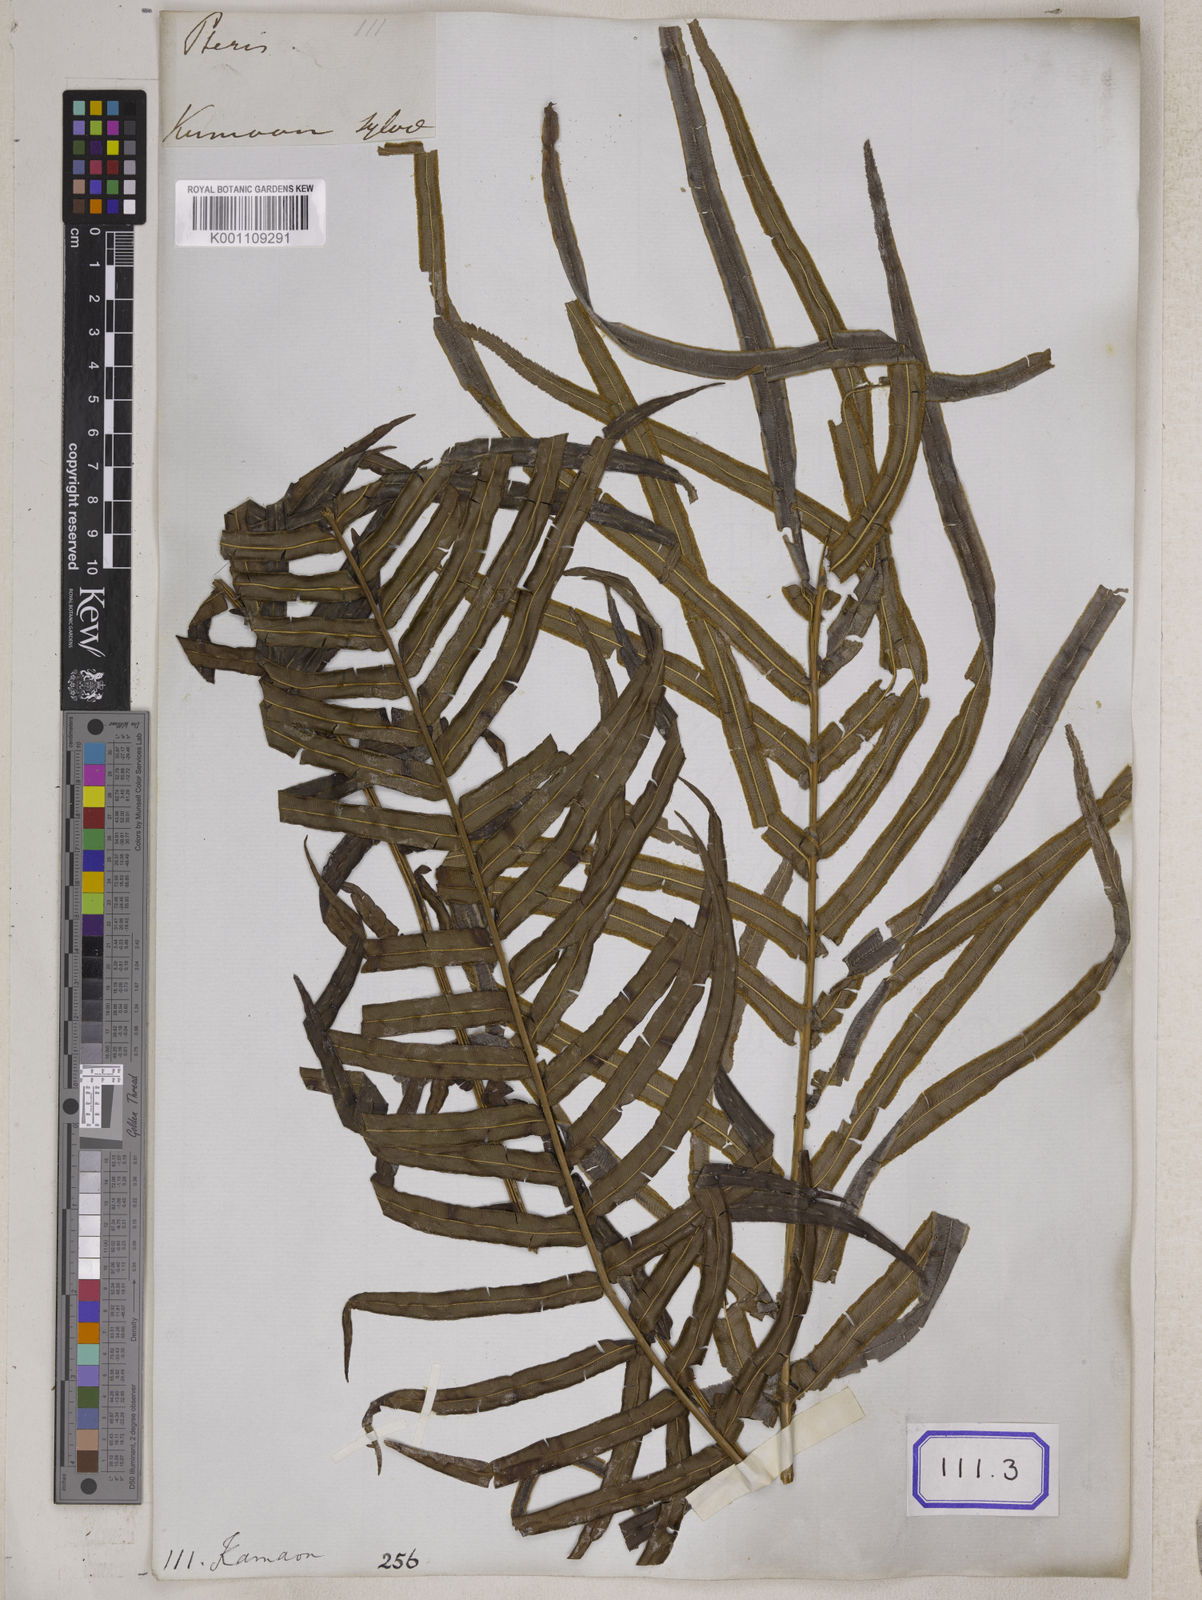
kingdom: Plantae
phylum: Tracheophyta
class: Polypodiopsida
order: Polypodiales
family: Pteridaceae
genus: Pteris
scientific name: Pteris longifolia
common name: Longleaf brake
